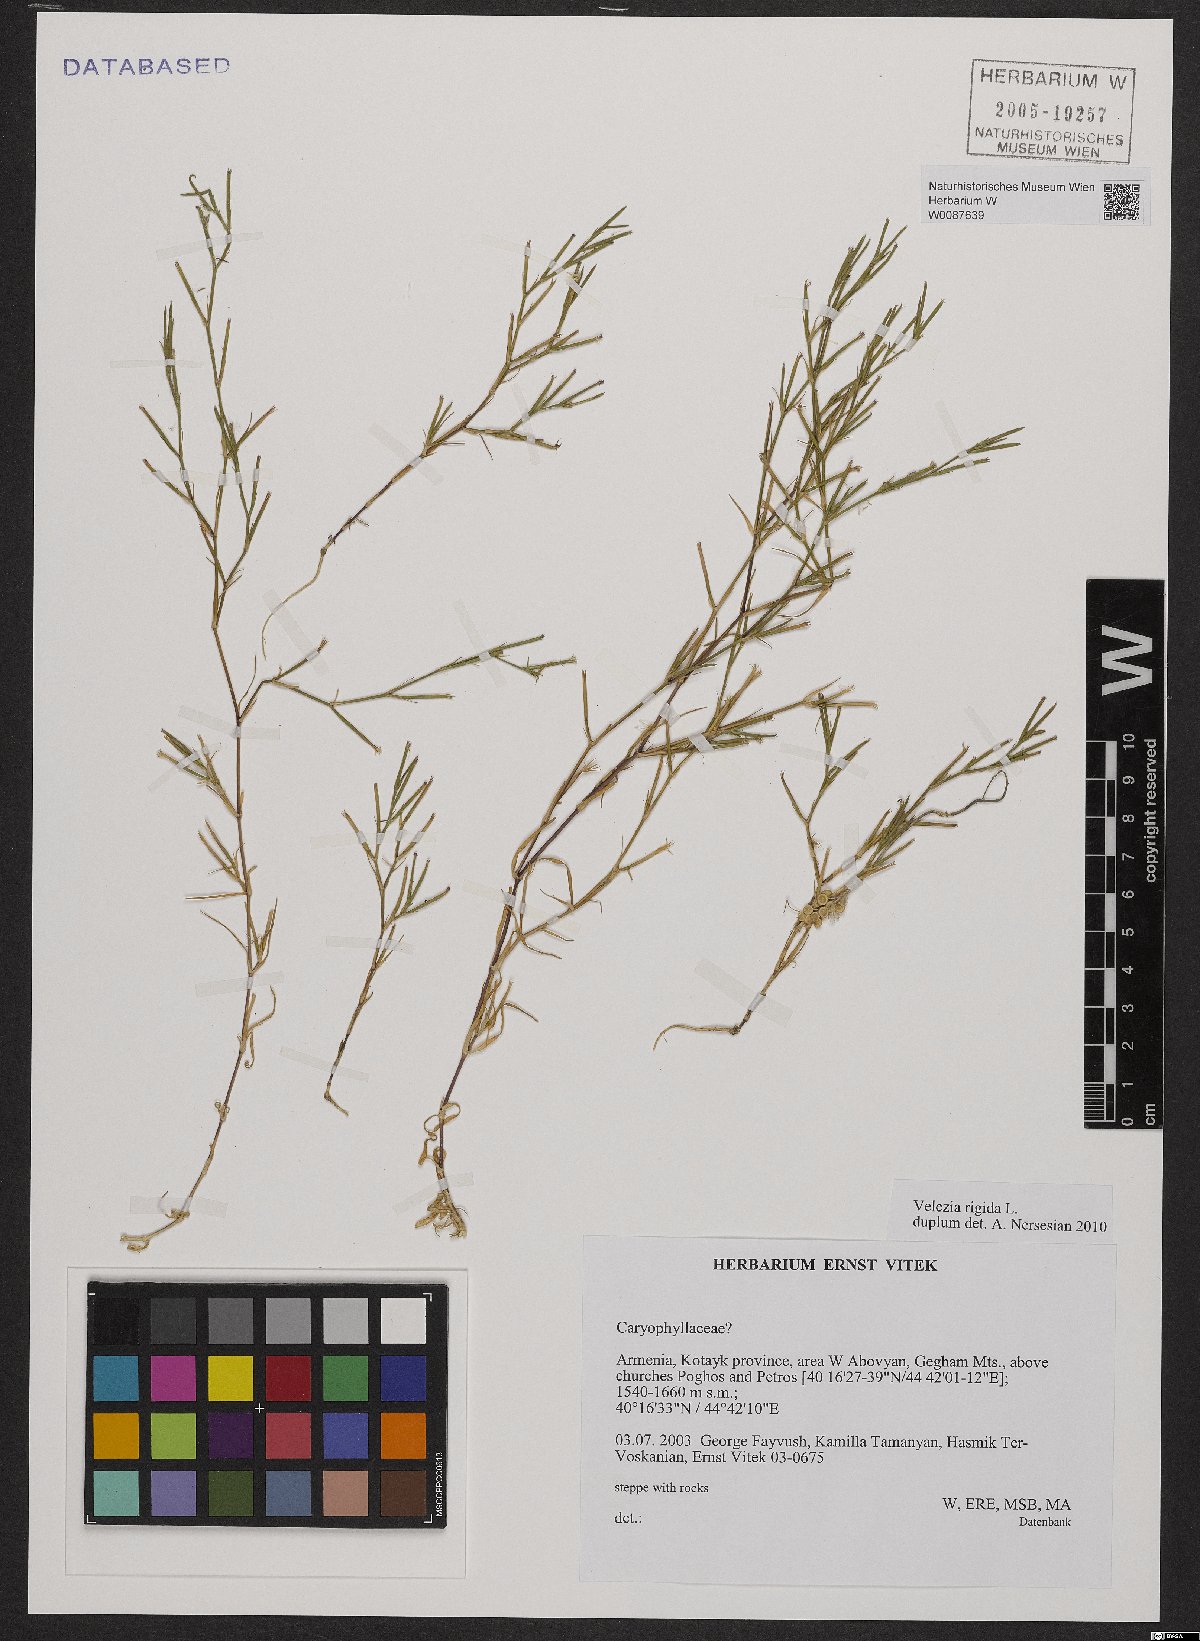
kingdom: Plantae
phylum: Tracheophyta
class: Magnoliopsida
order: Caryophyllales
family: Caryophyllaceae
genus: Dianthus
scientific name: Dianthus nudiflorus
